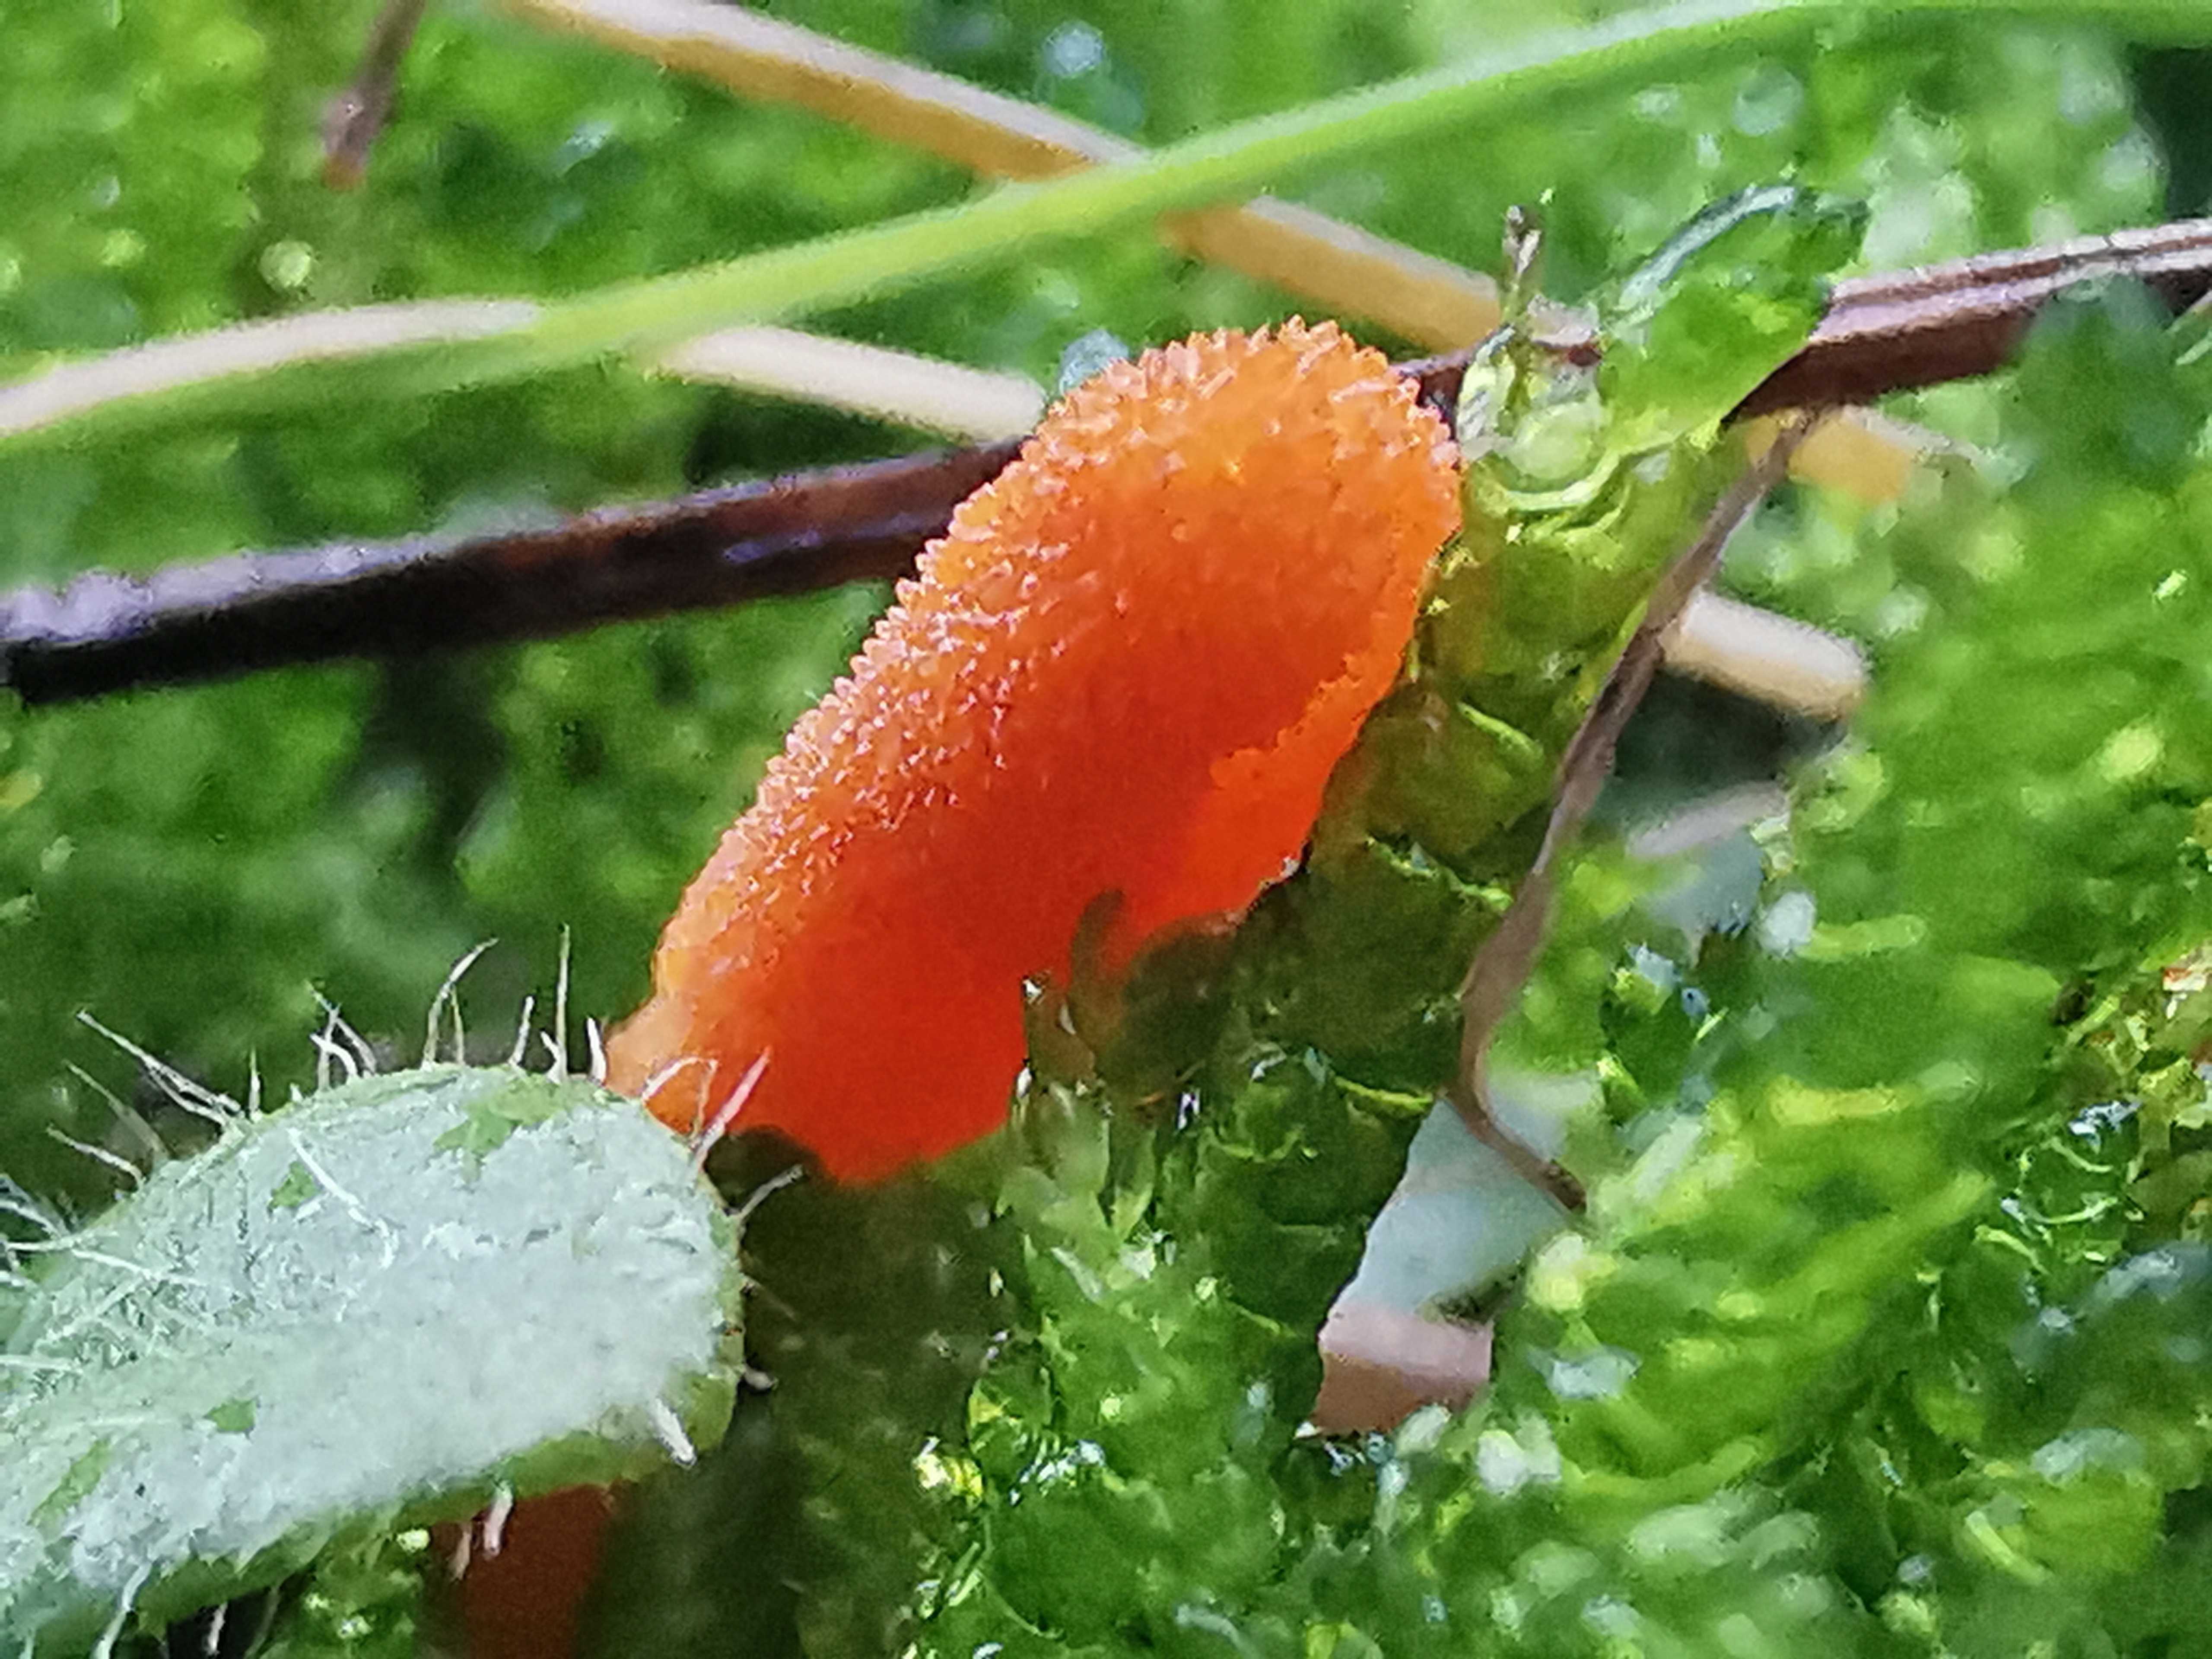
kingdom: Fungi
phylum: Ascomycota
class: Sordariomycetes
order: Hypocreales
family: Cordycipitaceae
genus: Cordyceps
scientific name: Cordyceps militaris
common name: puppe-snyltekølle
